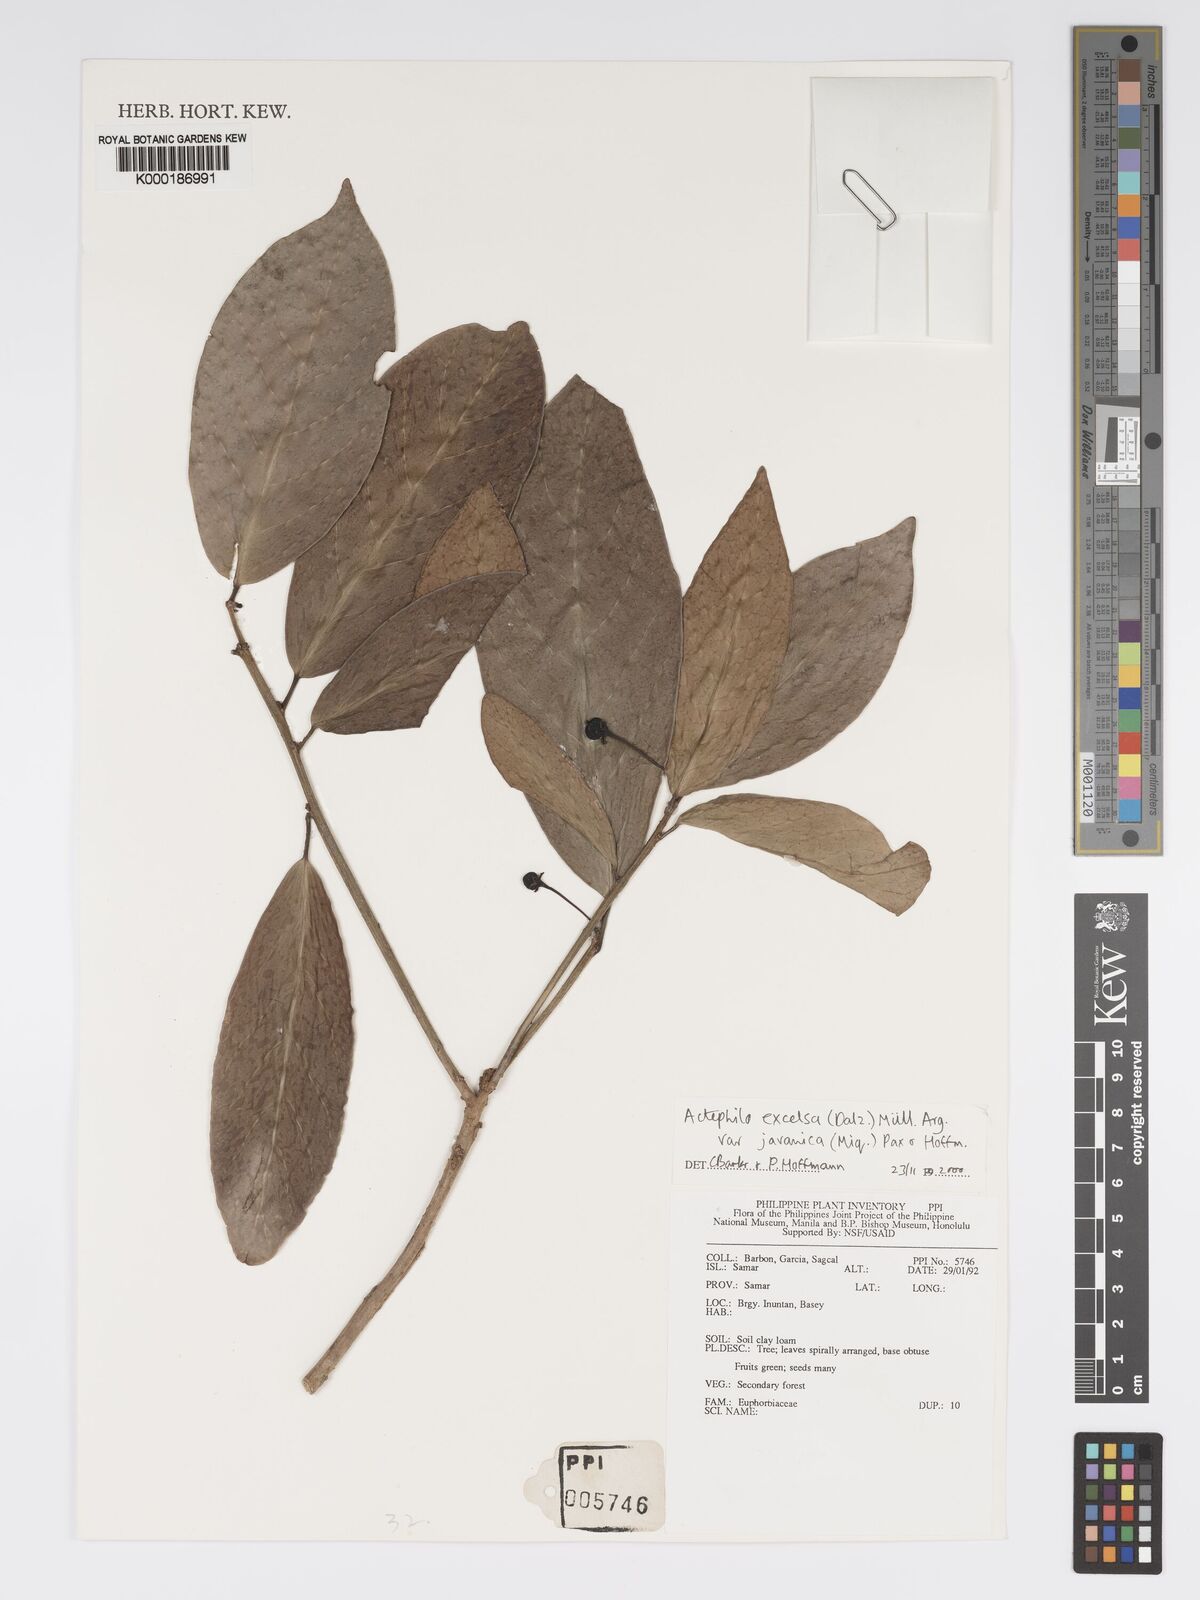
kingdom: Plantae
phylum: Tracheophyta
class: Magnoliopsida
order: Malpighiales
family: Phyllanthaceae
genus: Actephila
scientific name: Actephila
